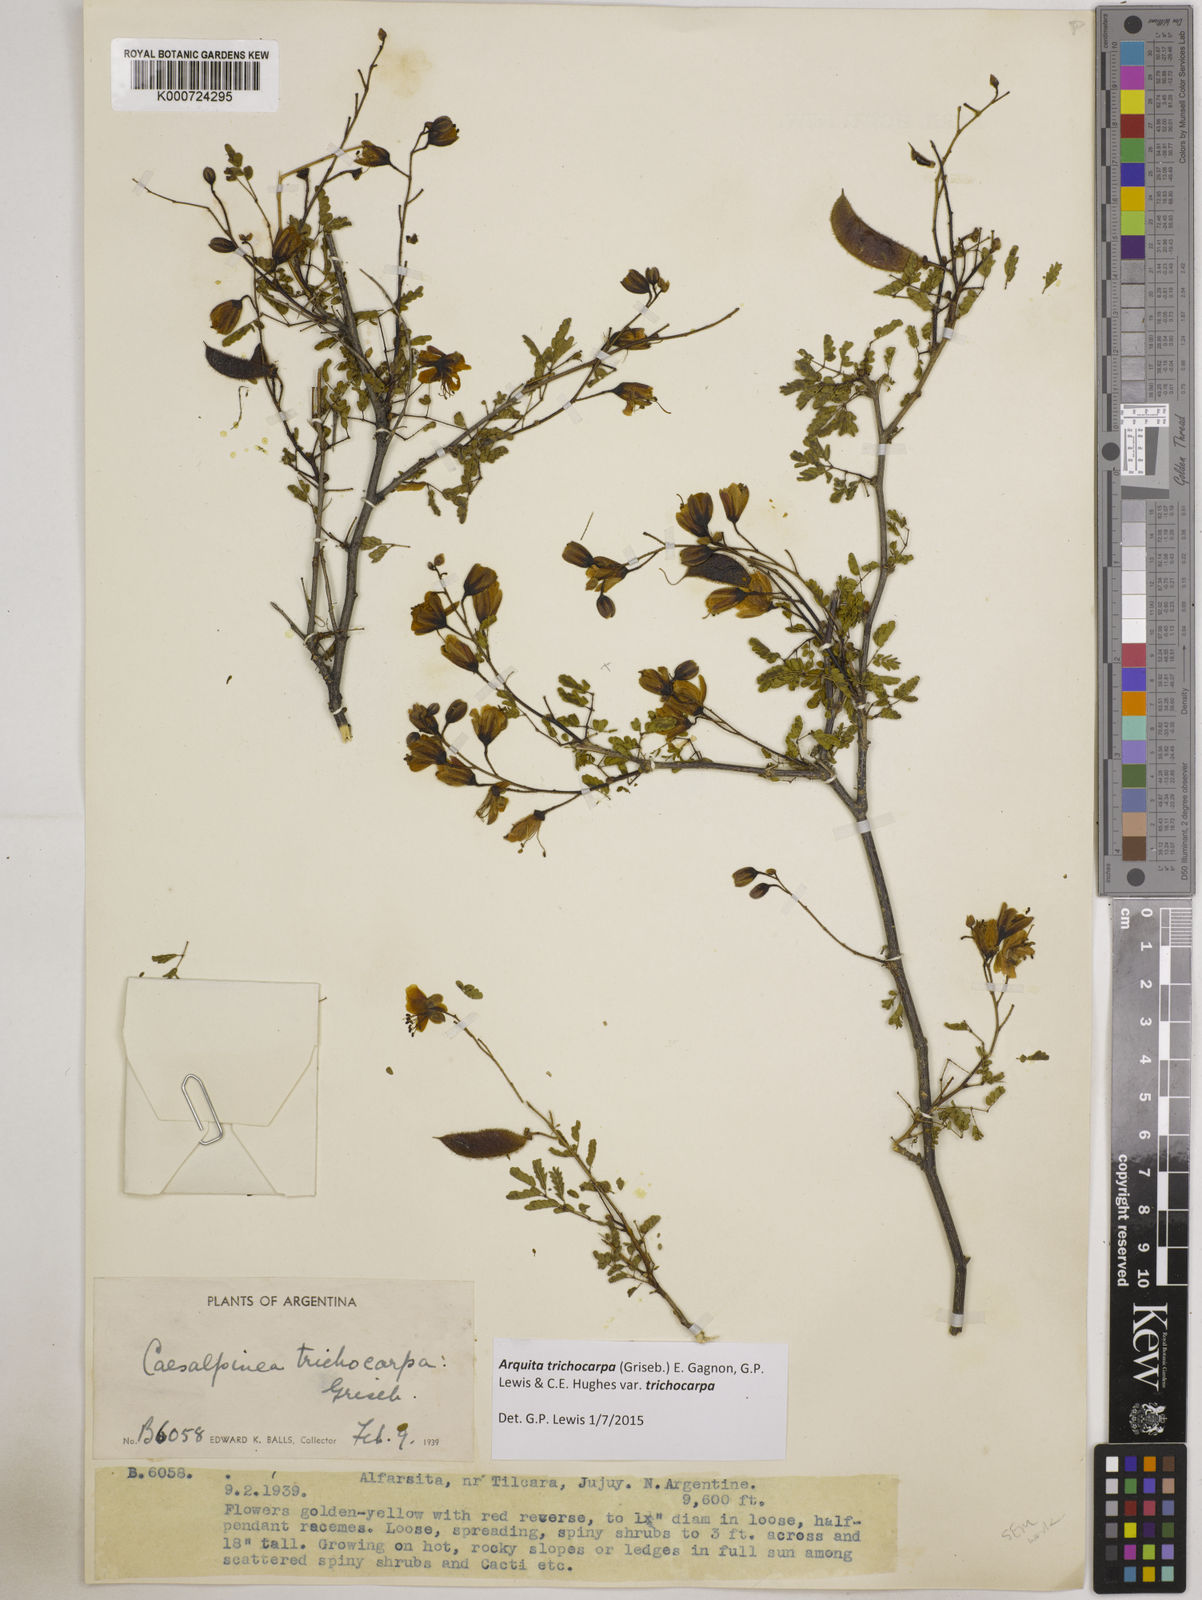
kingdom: Plantae
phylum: Tracheophyta
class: Magnoliopsida
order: Fabales
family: Fabaceae
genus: Arquita
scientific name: Arquita trichocarpa
